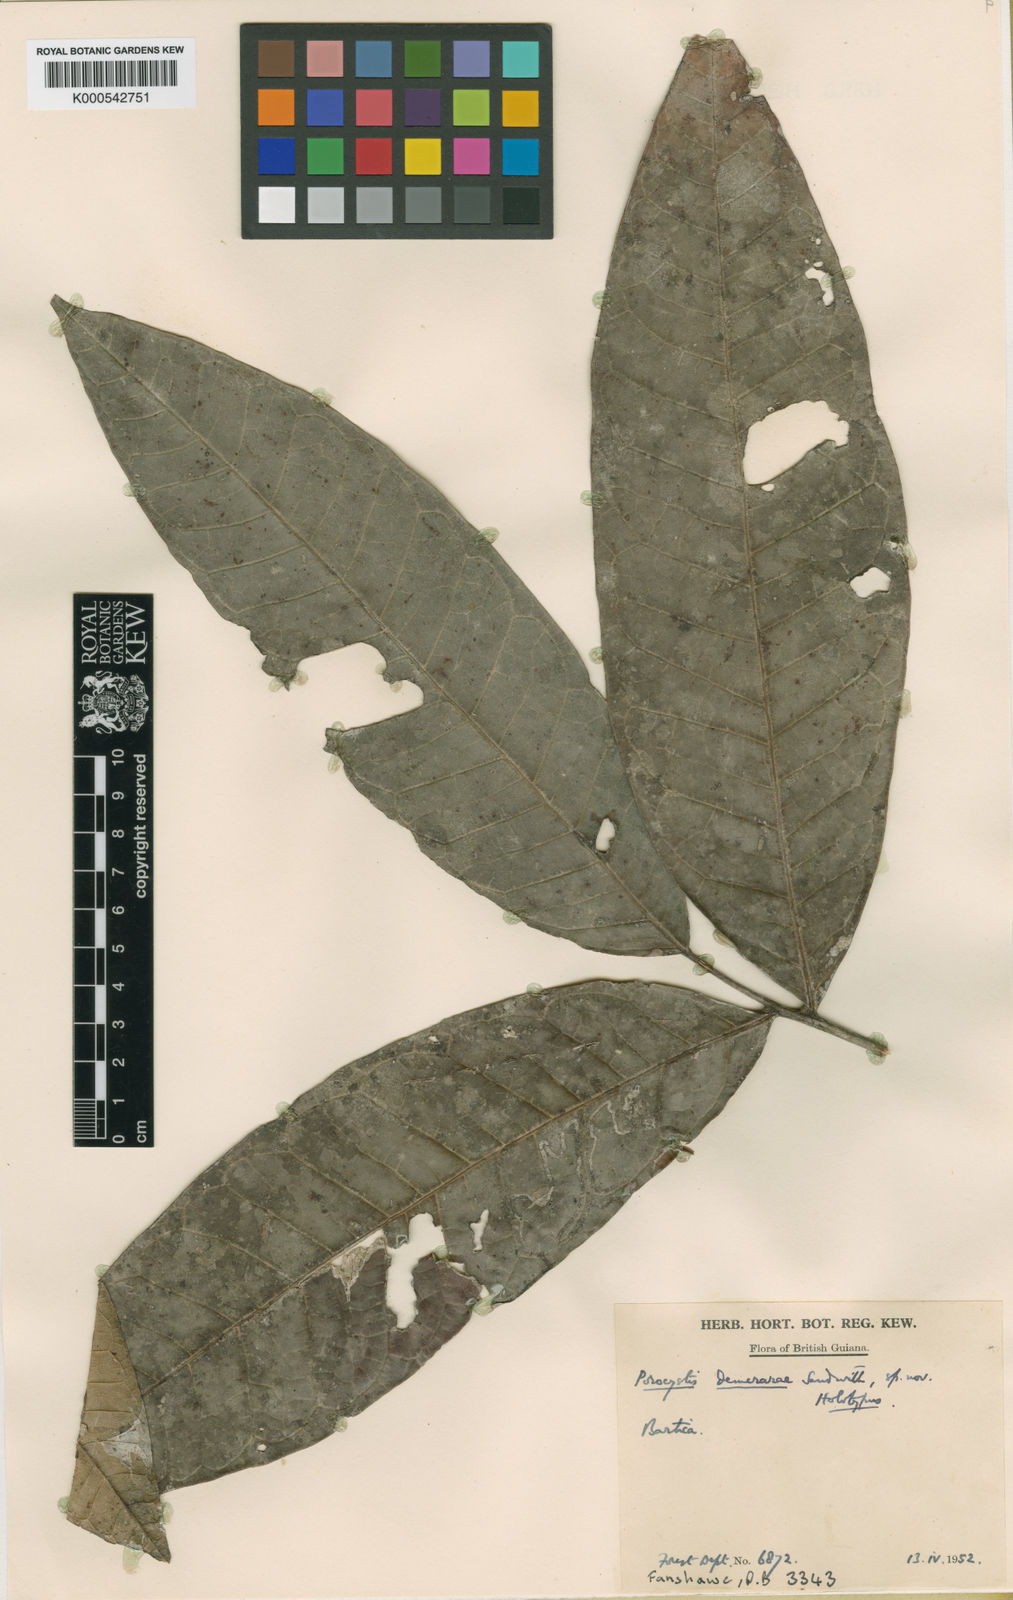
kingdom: Plantae
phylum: Tracheophyta
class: Magnoliopsida
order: Sapindales
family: Sapindaceae
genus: Porocystis
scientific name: Porocystis toulicioides
